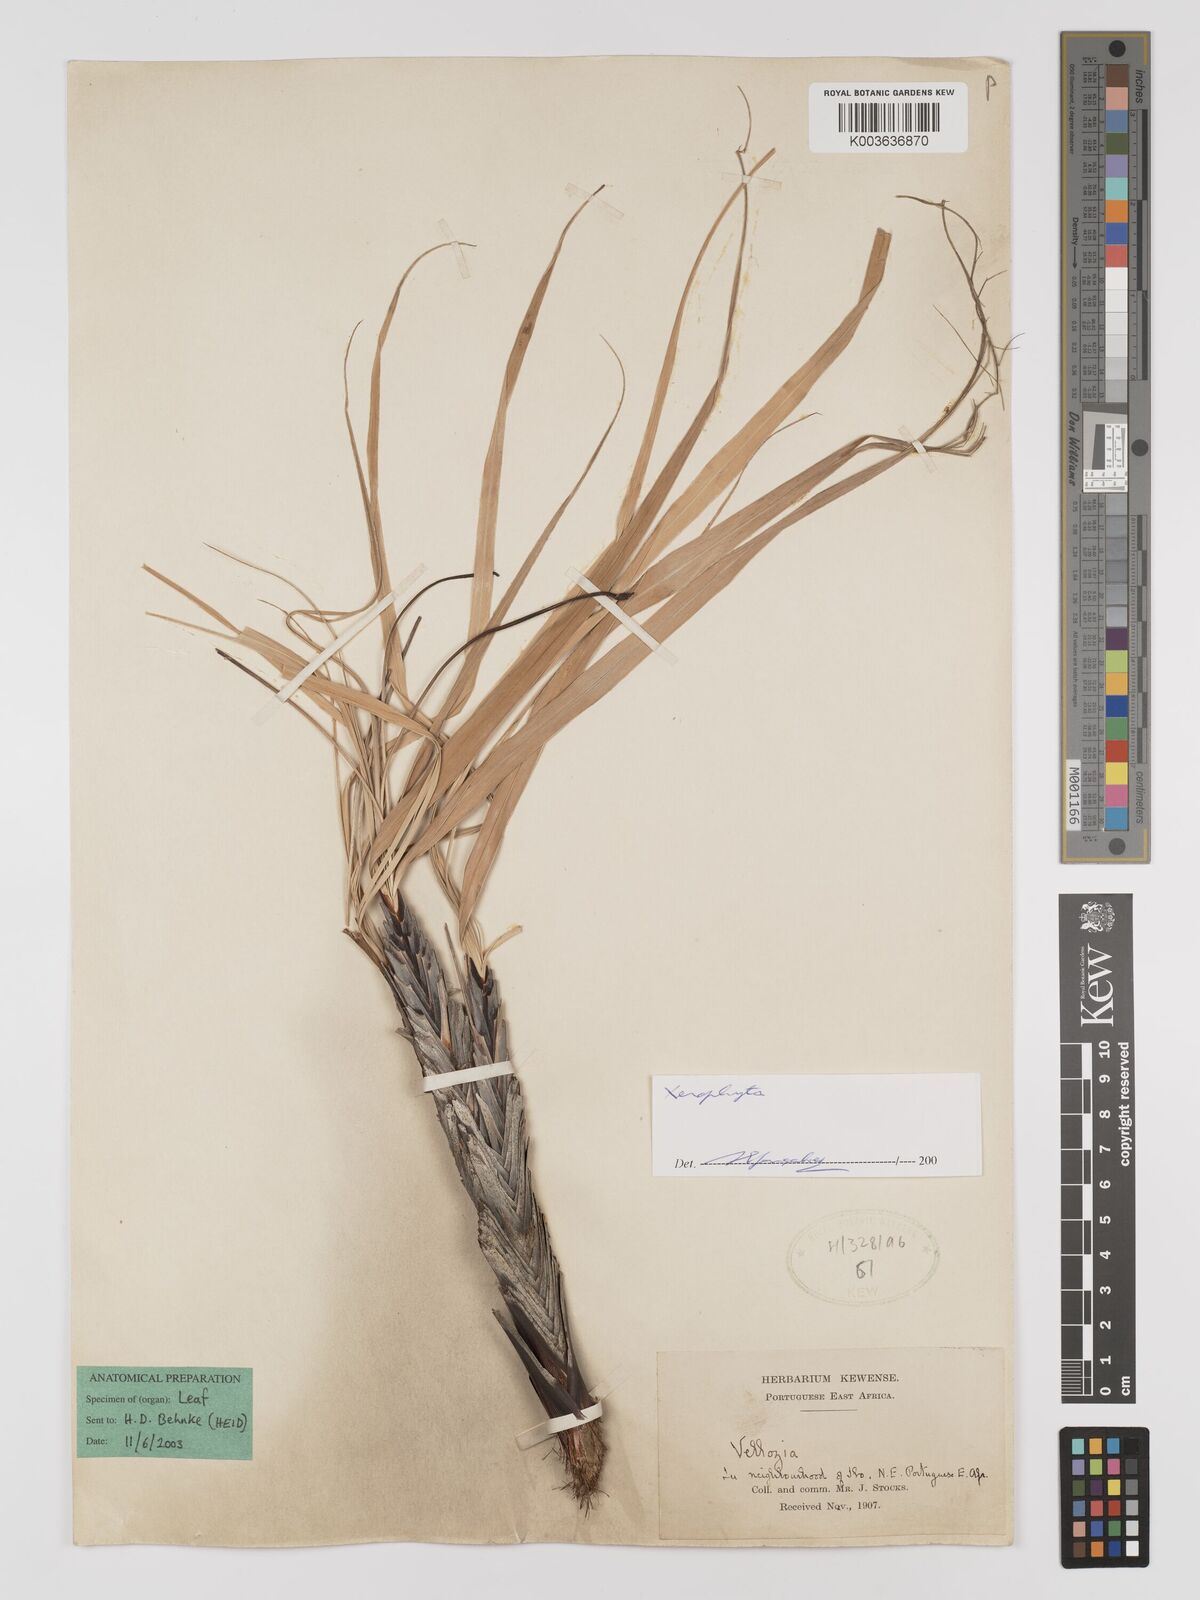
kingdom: Plantae
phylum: Tracheophyta
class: Liliopsida
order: Pandanales
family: Velloziaceae
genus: Xerophyta
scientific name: Xerophyta
